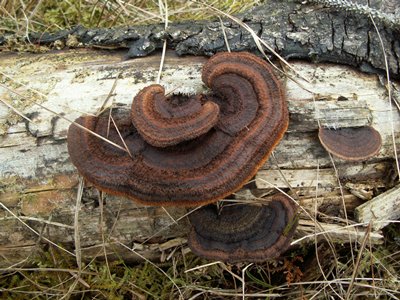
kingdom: Fungi
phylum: Basidiomycota
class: Agaricomycetes
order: Gloeophyllales
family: Gloeophyllaceae
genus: Gloeophyllum
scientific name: Gloeophyllum sepiarium
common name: fyrre-korkhat
